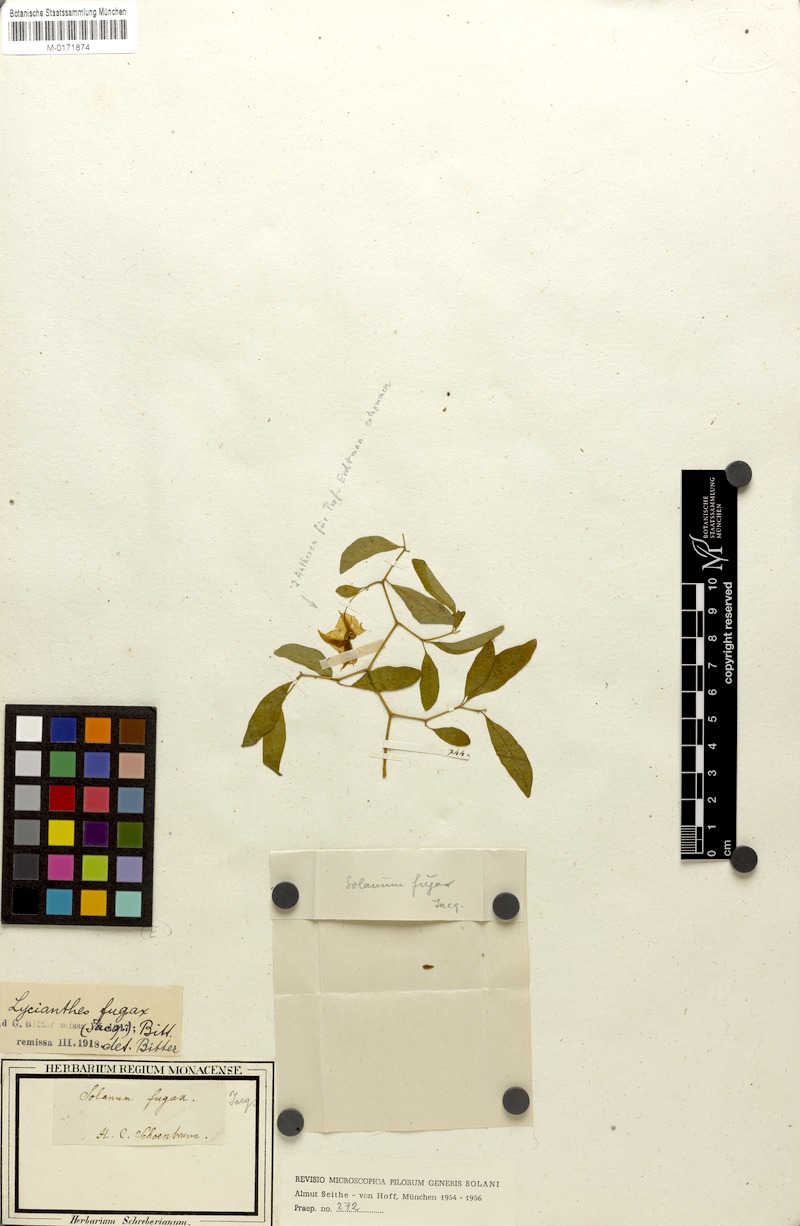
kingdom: Plantae
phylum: Tracheophyta
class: Magnoliopsida
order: Solanales
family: Solanaceae
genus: Lycianthes
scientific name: Lycianthes fugax
